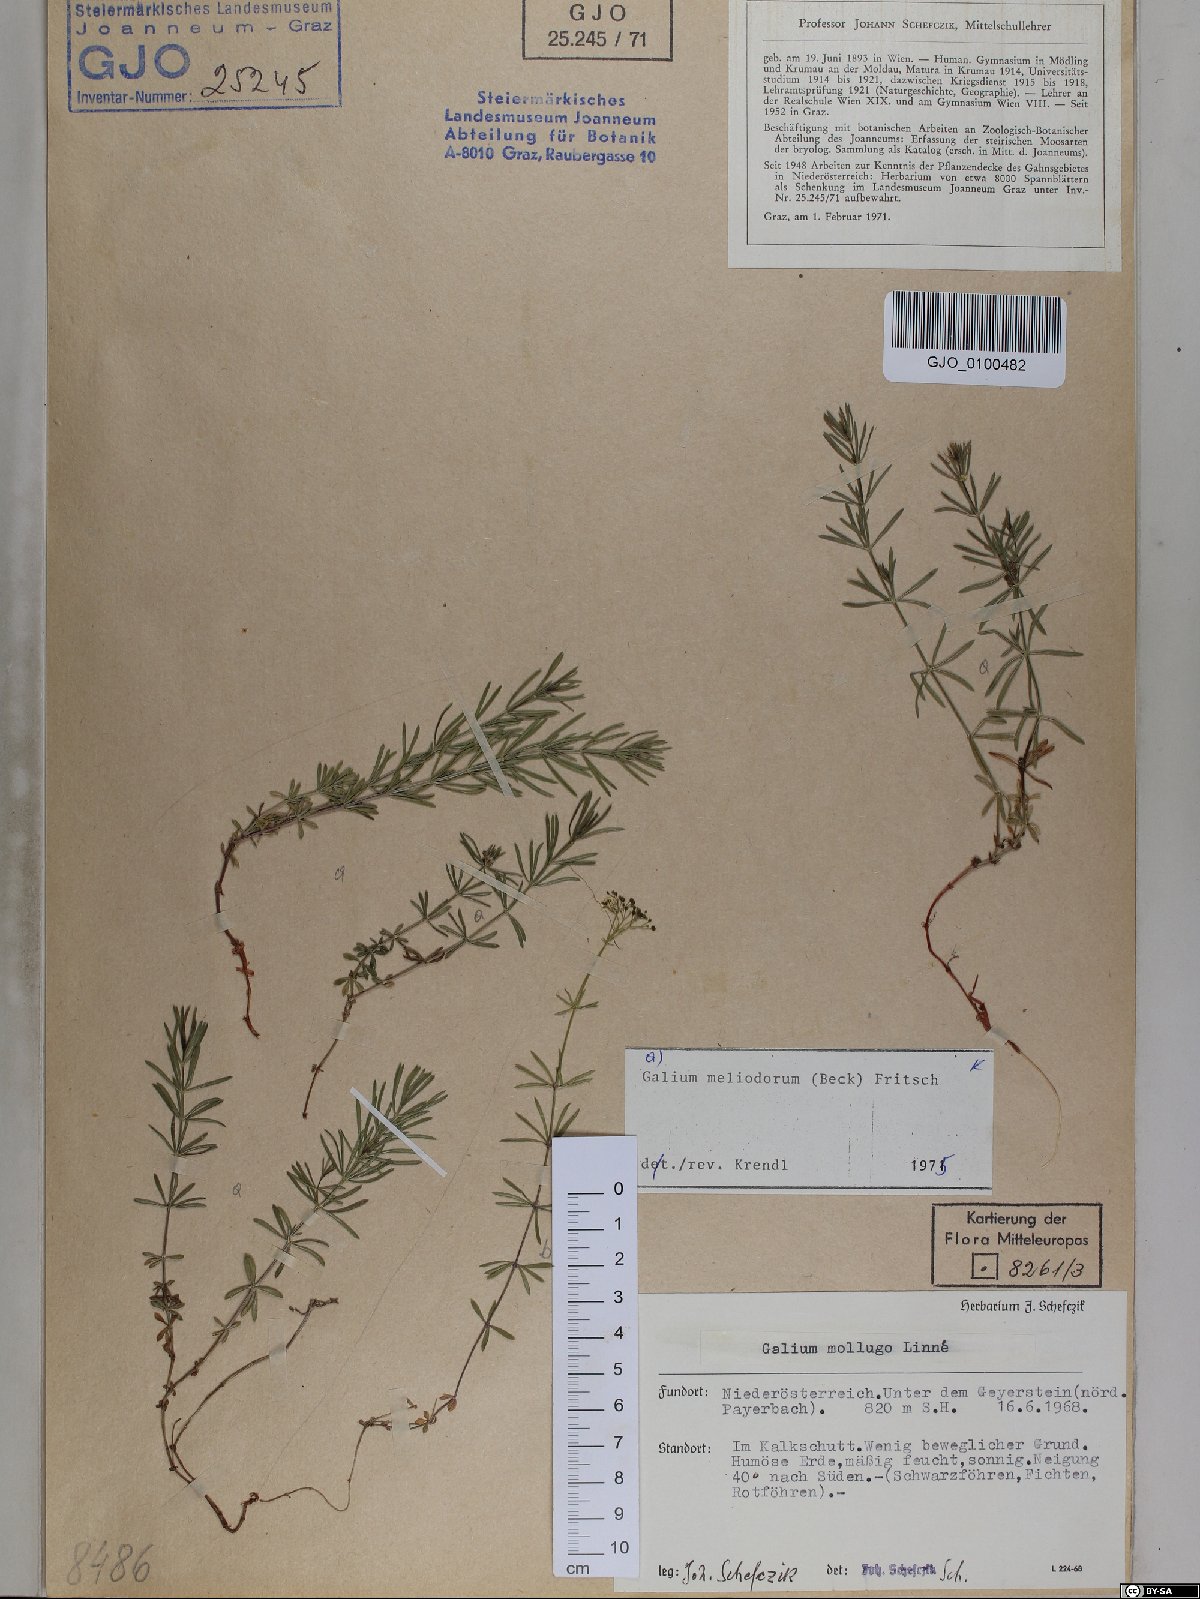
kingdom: Plantae
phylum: Tracheophyta
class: Magnoliopsida
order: Gentianales
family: Rubiaceae
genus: Galium
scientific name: Galium meliodorum
